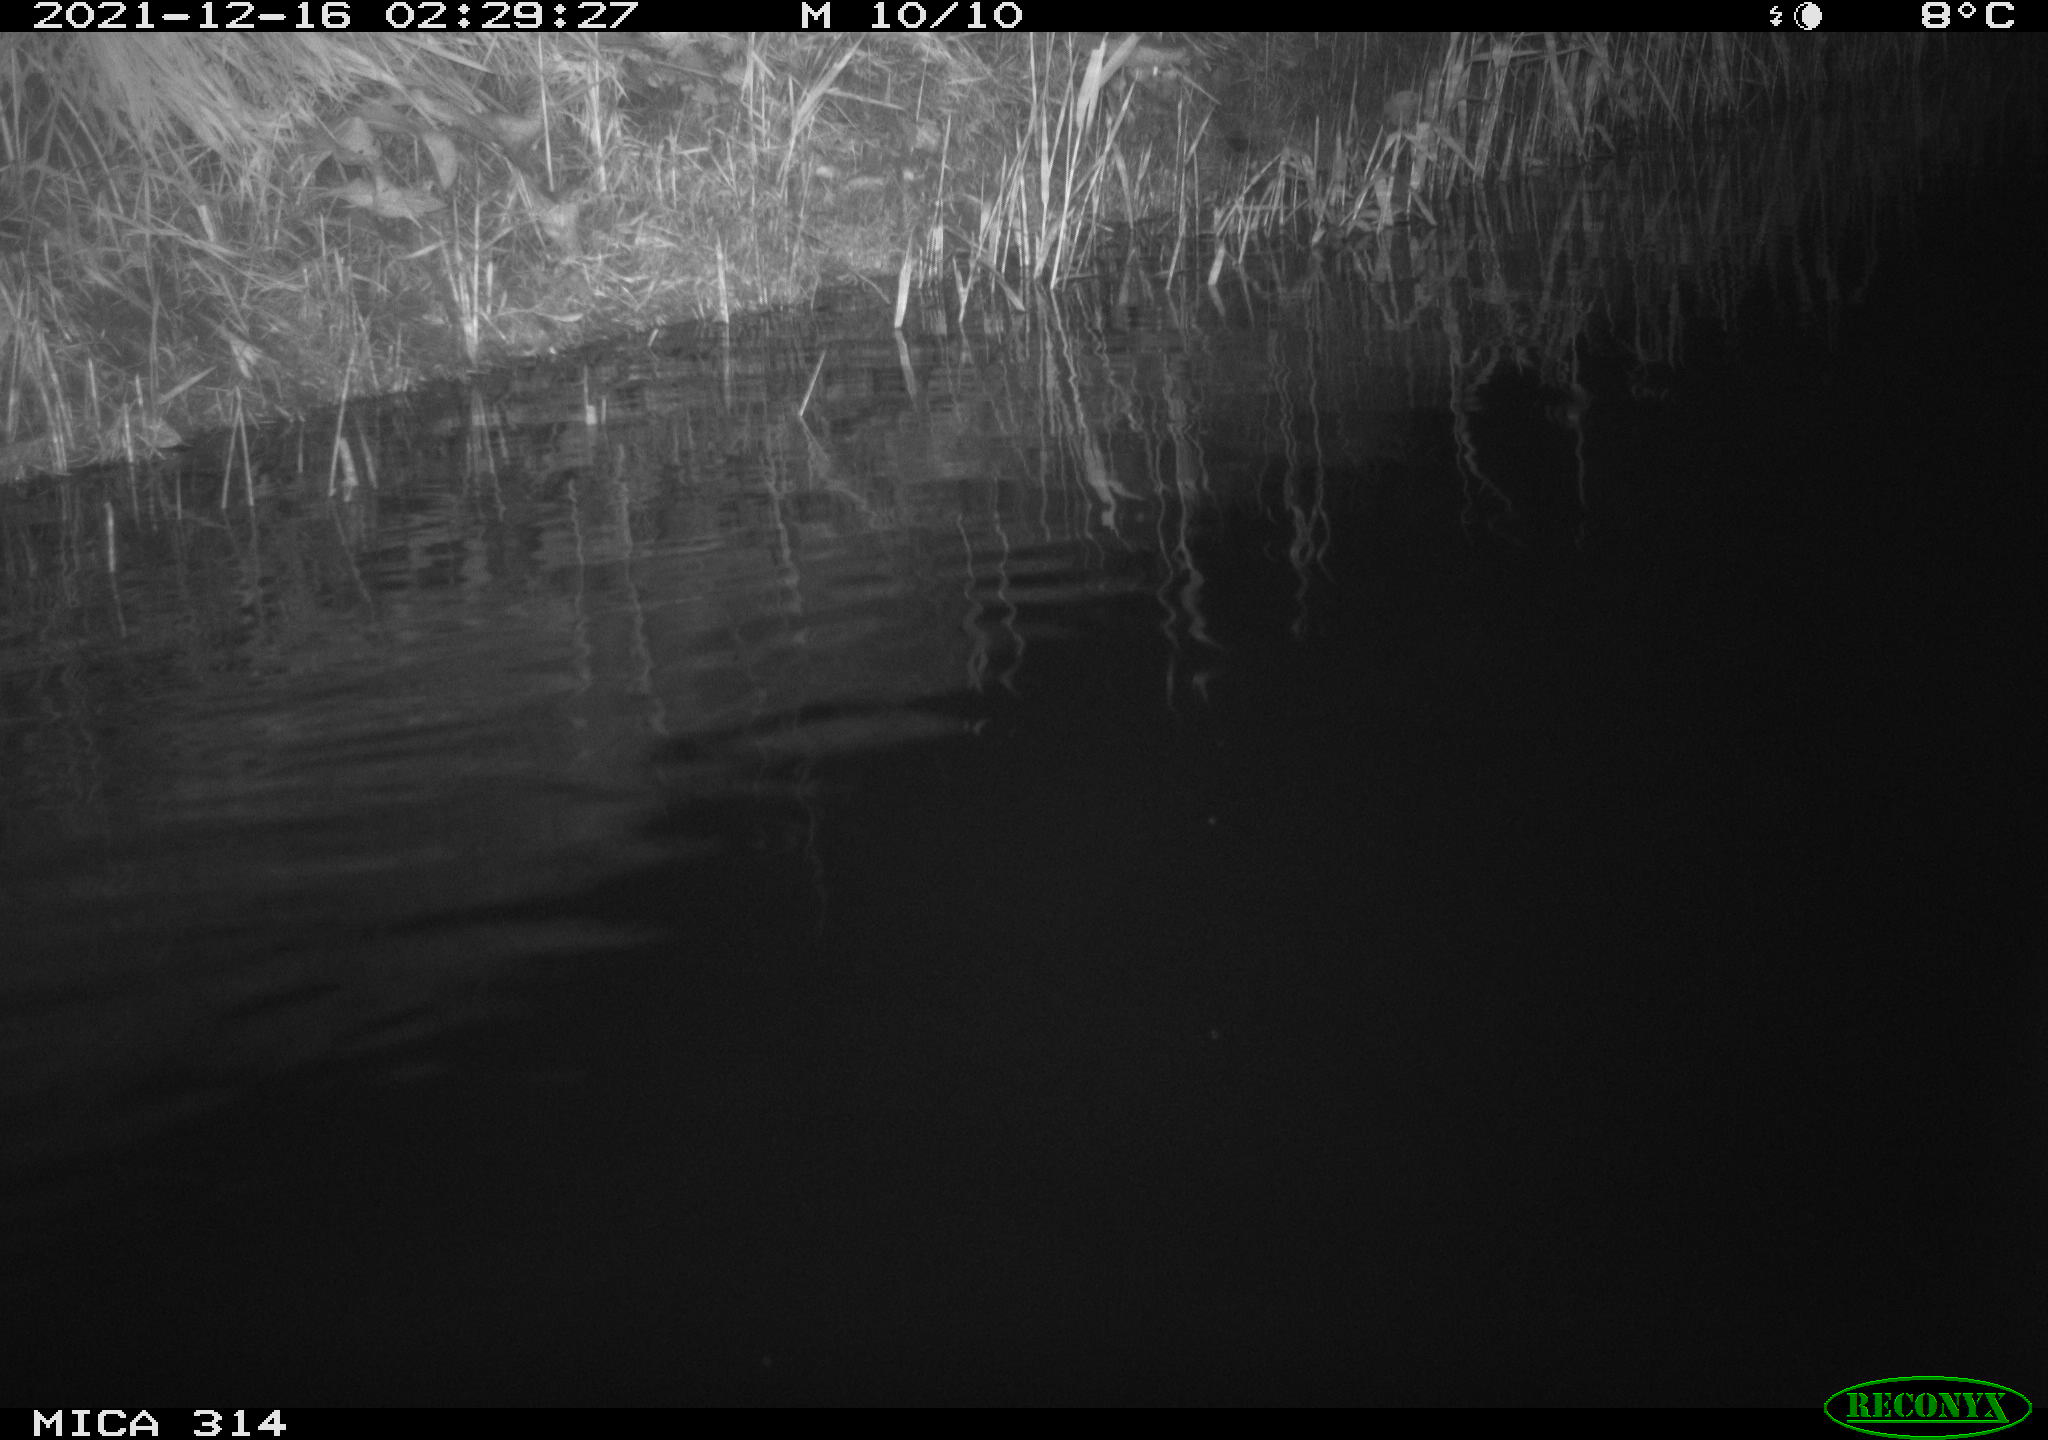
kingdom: Animalia
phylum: Chordata
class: Mammalia
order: Rodentia
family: Cricetidae
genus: Ondatra
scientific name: Ondatra zibethicus
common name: Muskrat
